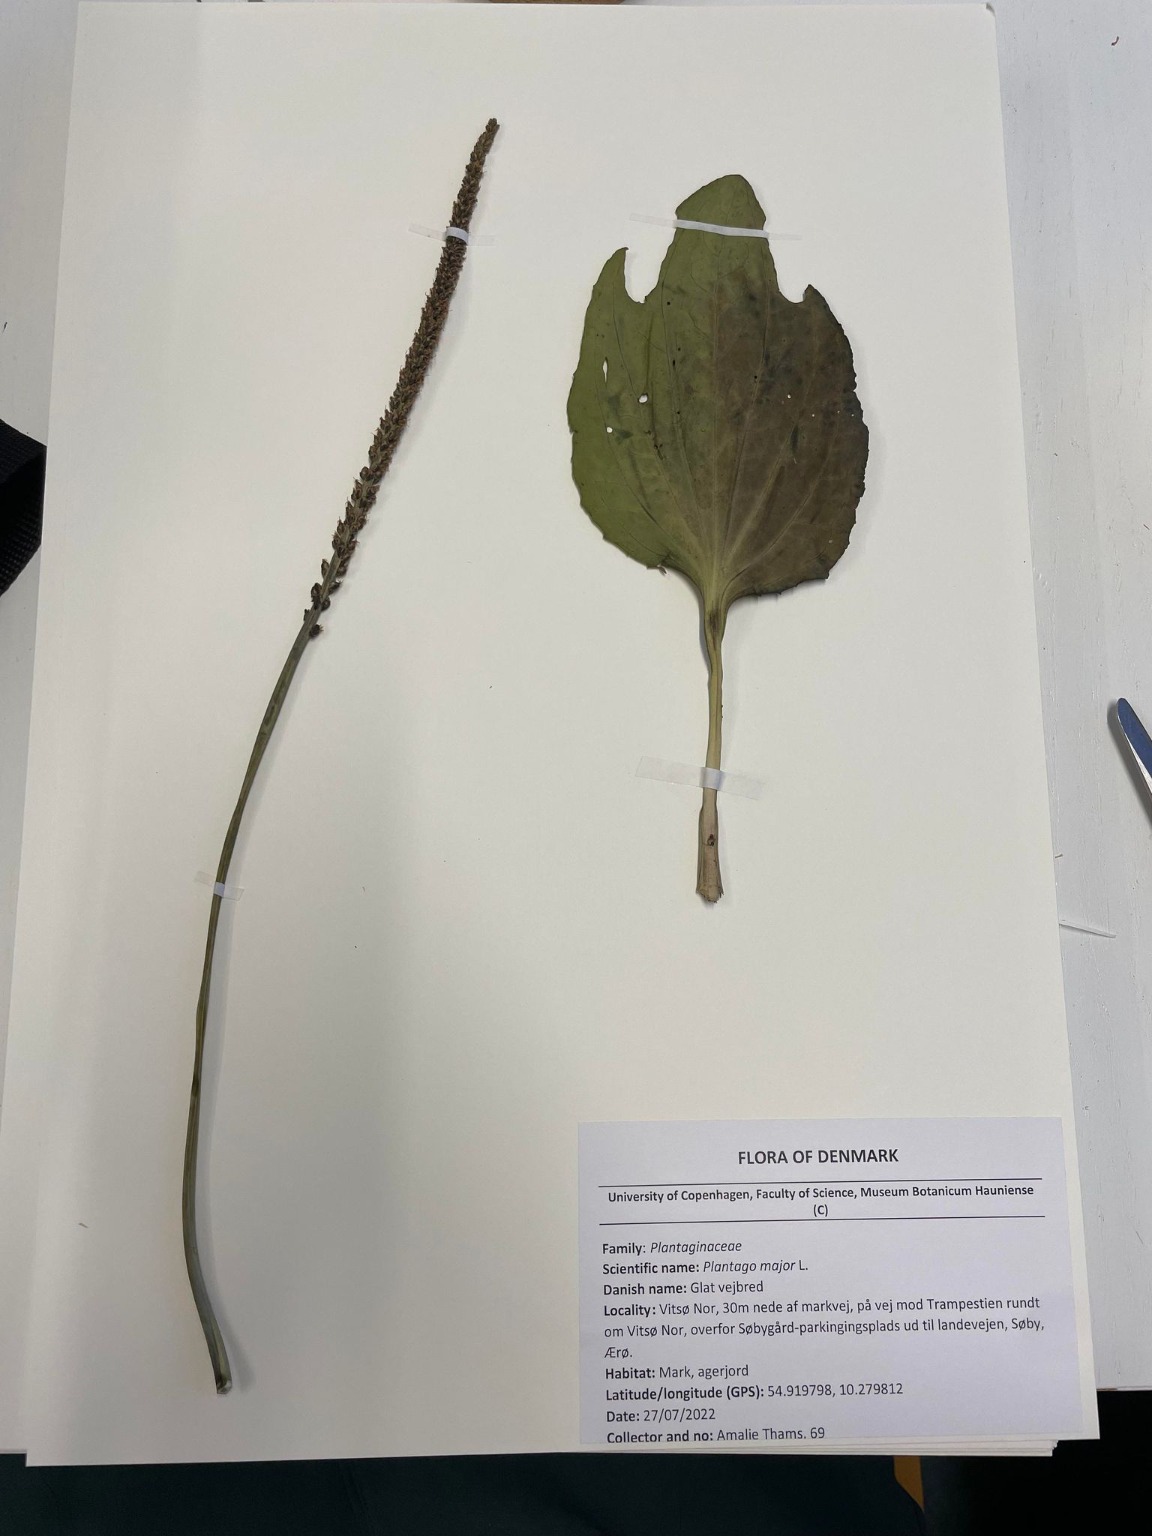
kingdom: Plantae
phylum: Tracheophyta
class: Magnoliopsida
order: Lamiales
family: Plantaginaceae
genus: Plantago
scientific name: Plantago major
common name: Glat vejbred
